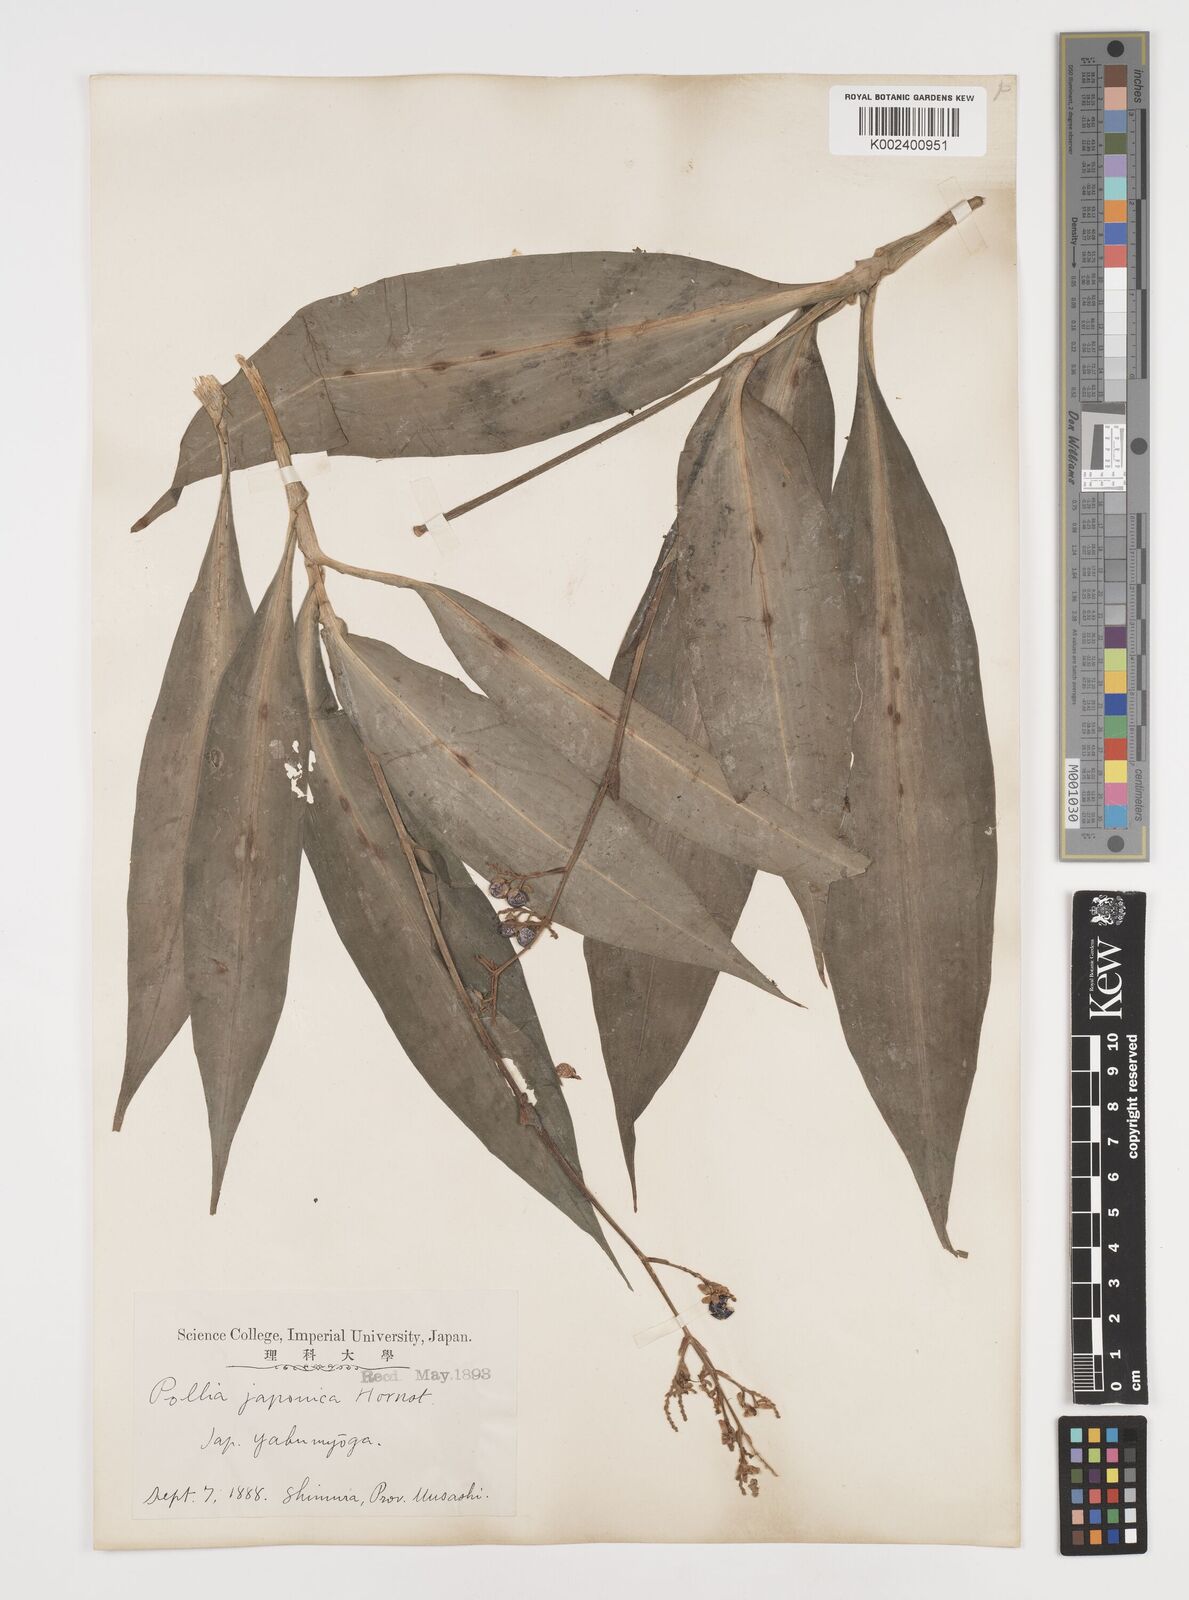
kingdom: Plantae
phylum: Tracheophyta
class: Liliopsida
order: Commelinales
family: Commelinaceae
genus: Pollia
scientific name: Pollia japonica
